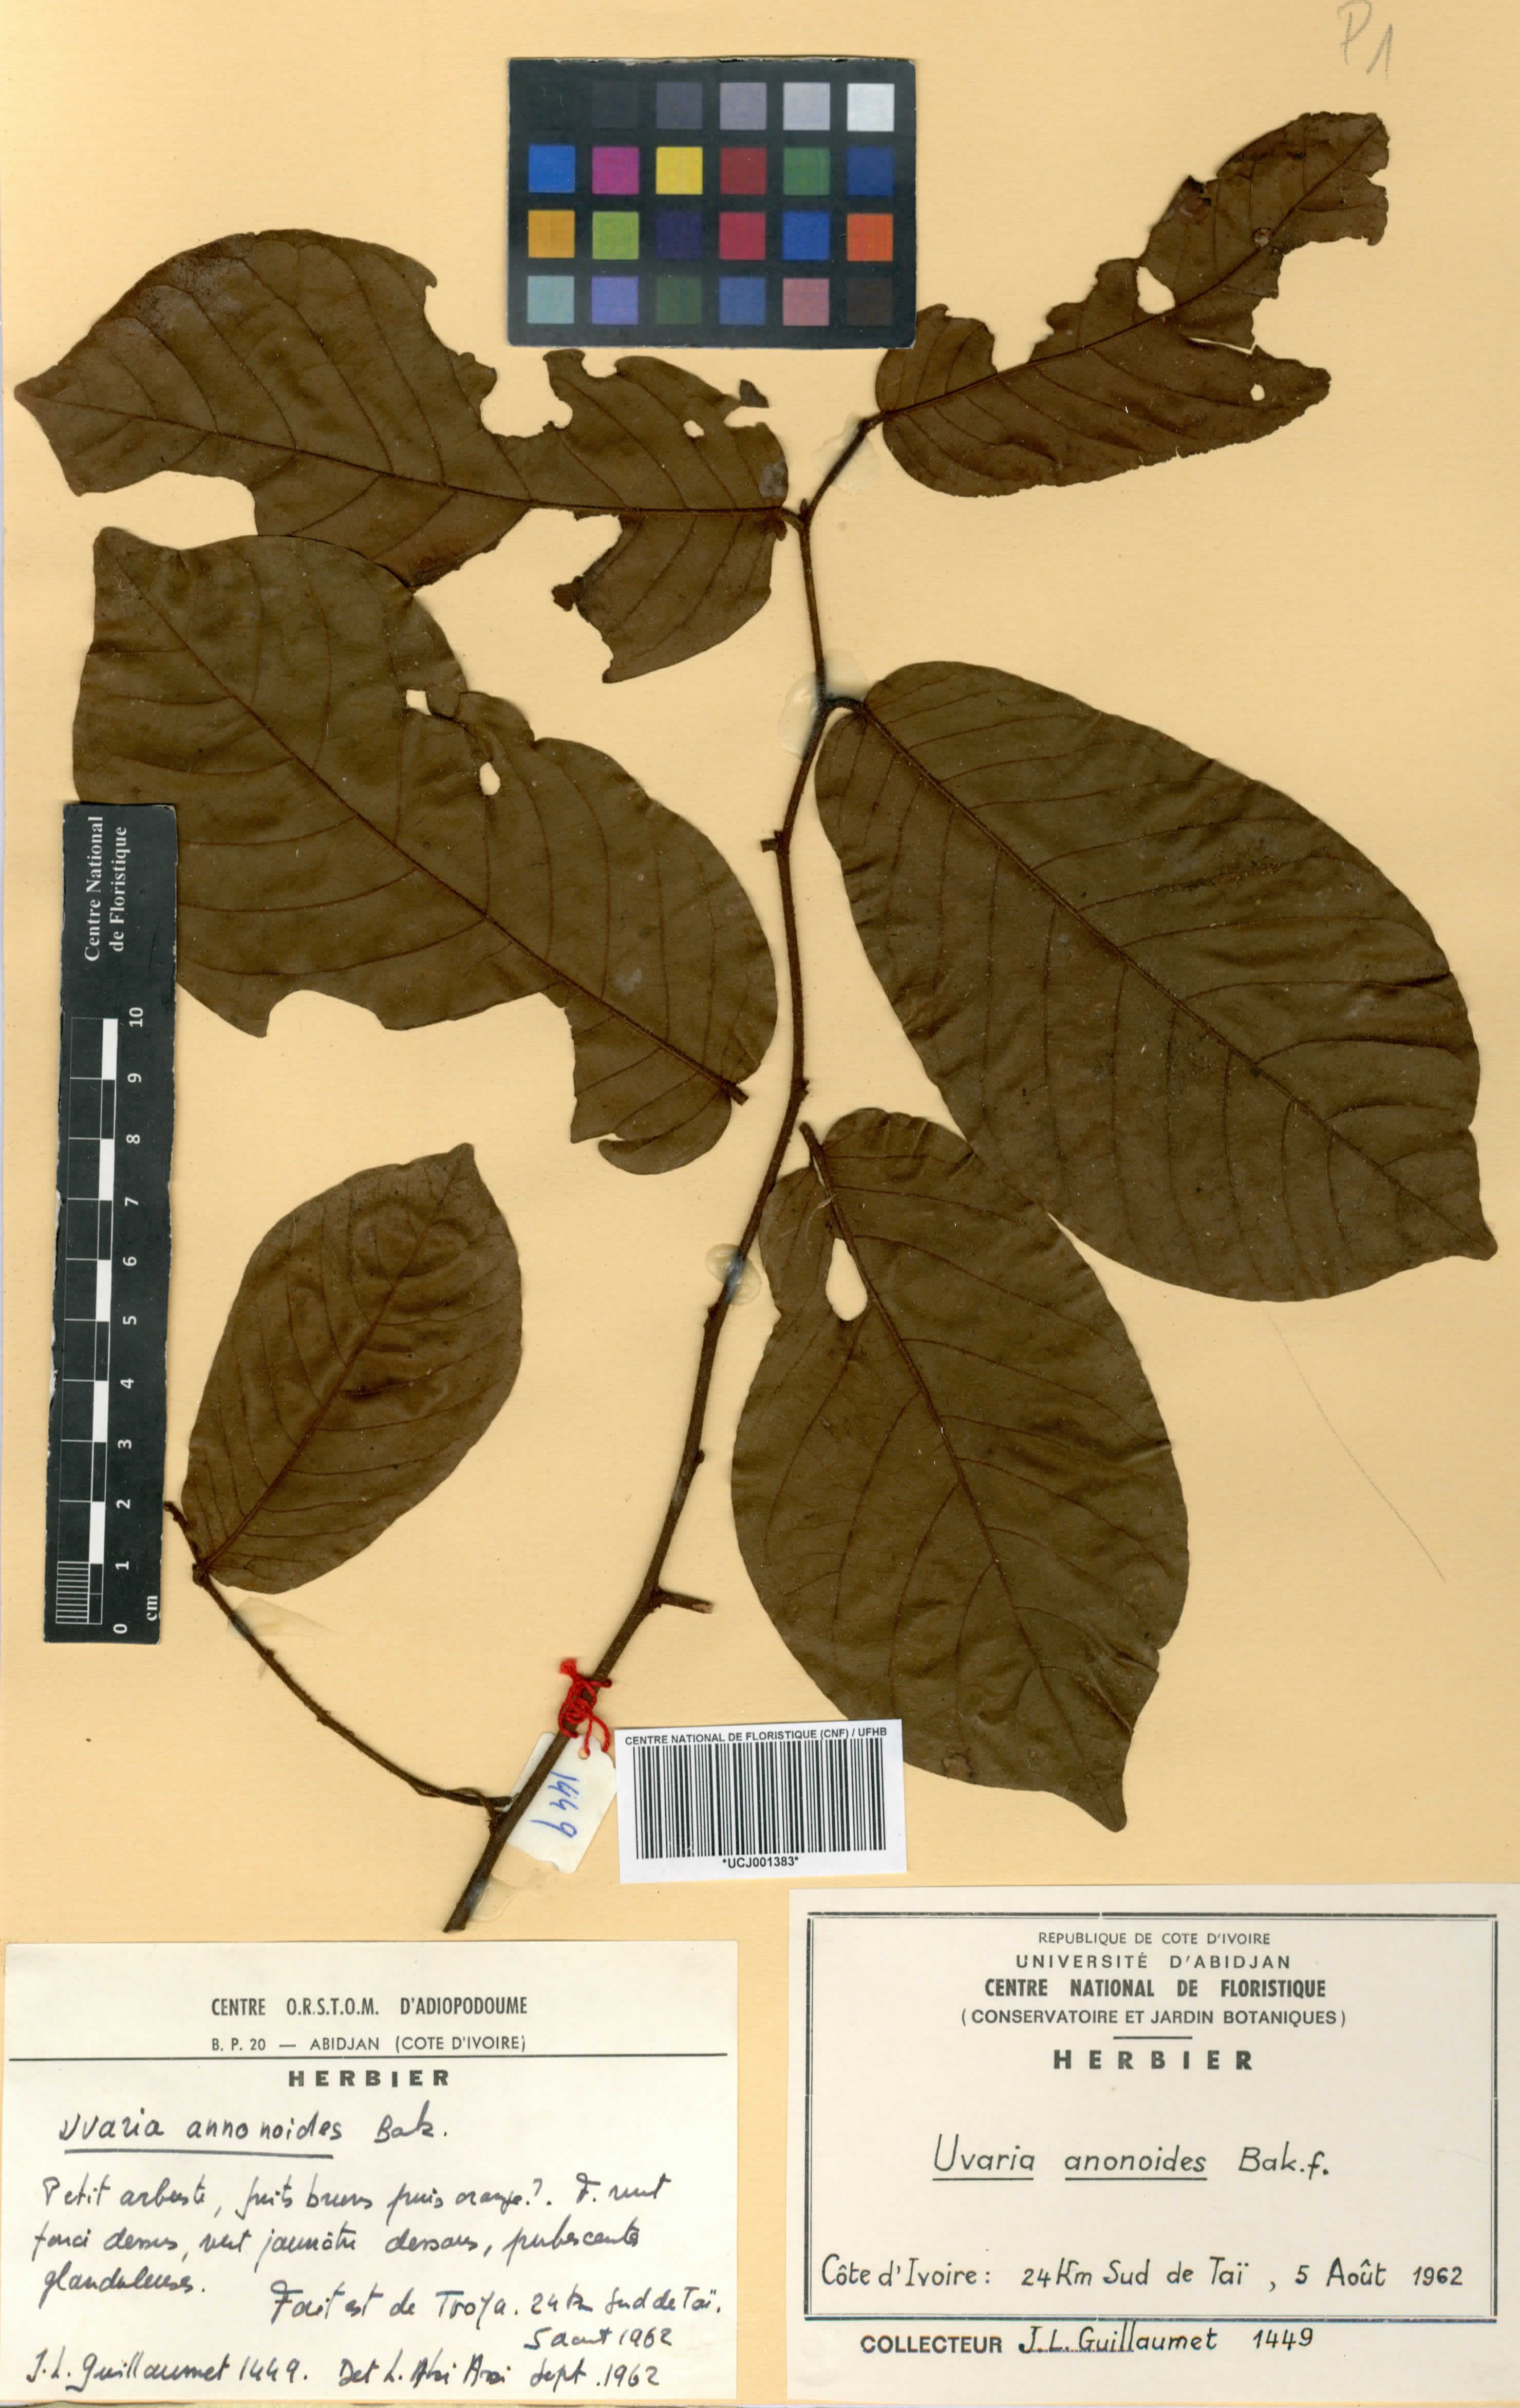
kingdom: Plantae
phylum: Tracheophyta
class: Magnoliopsida
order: Magnoliales
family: Annonaceae
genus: Uvaria
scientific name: Uvaria anonoides
